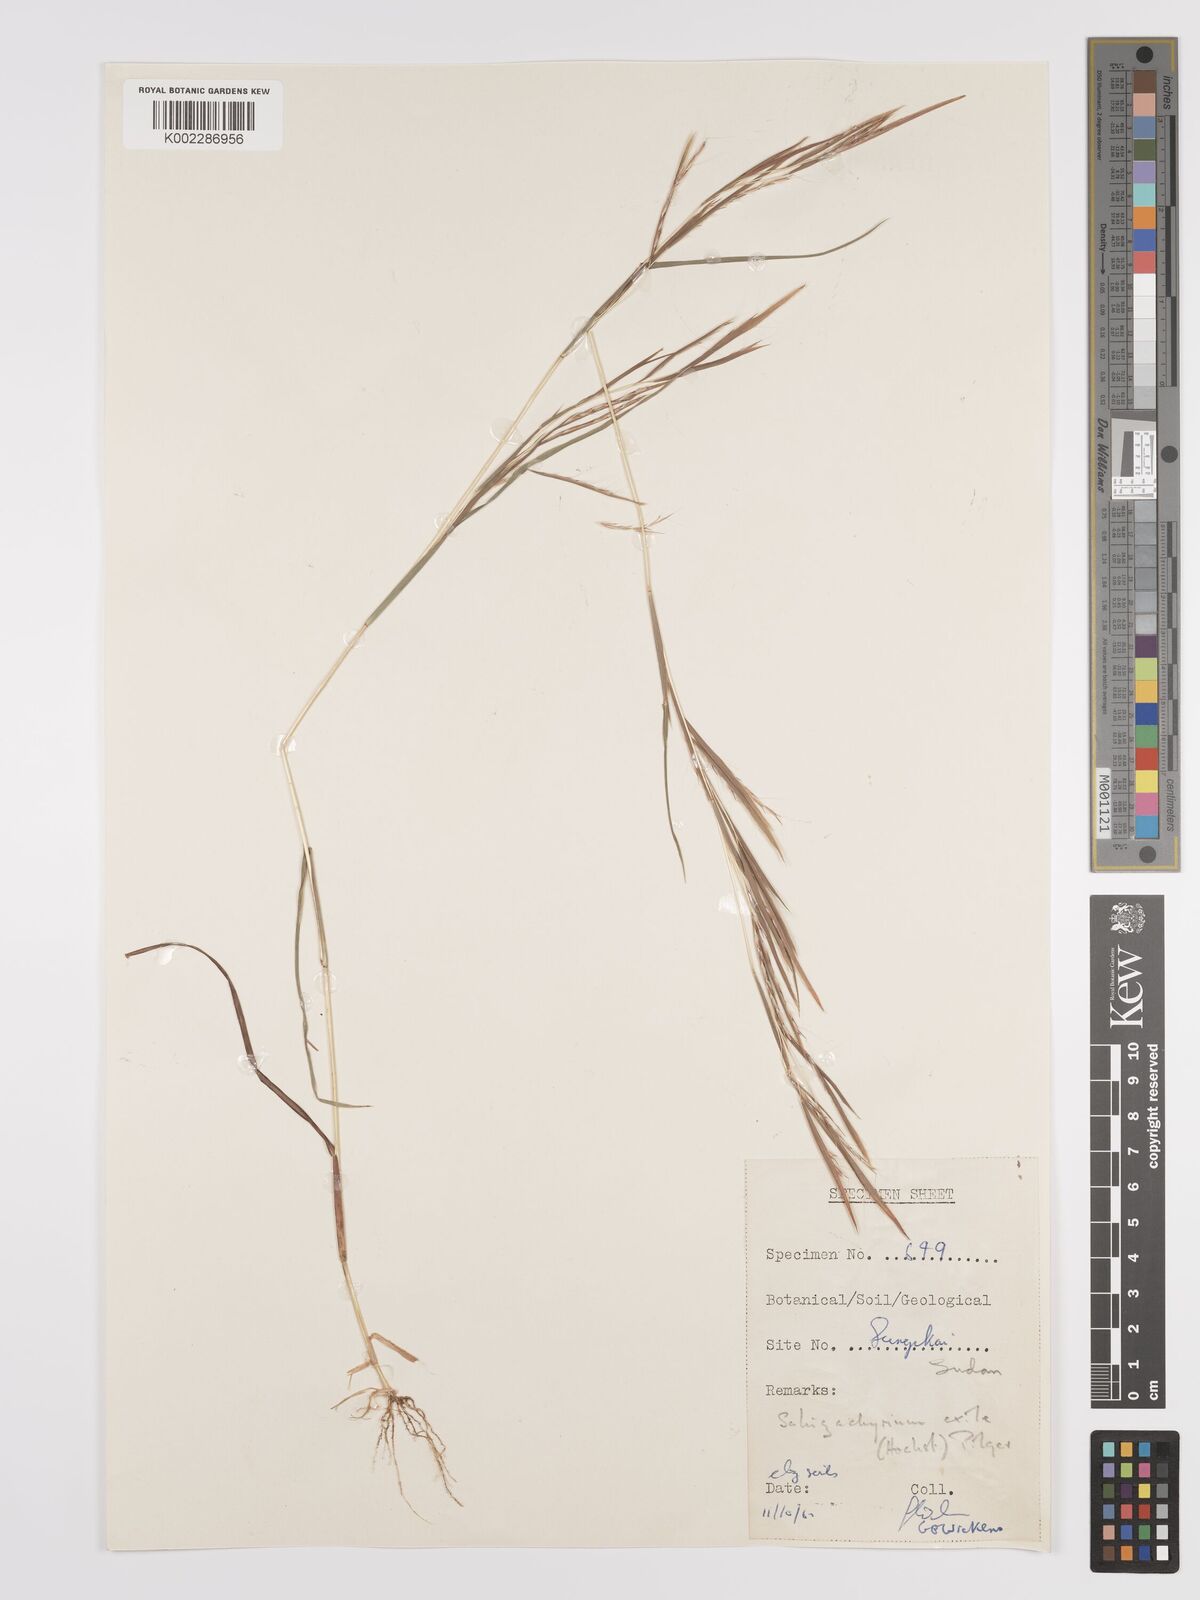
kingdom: Plantae
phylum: Tracheophyta
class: Liliopsida
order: Poales
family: Poaceae
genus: Schizachyrium
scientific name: Schizachyrium exile
